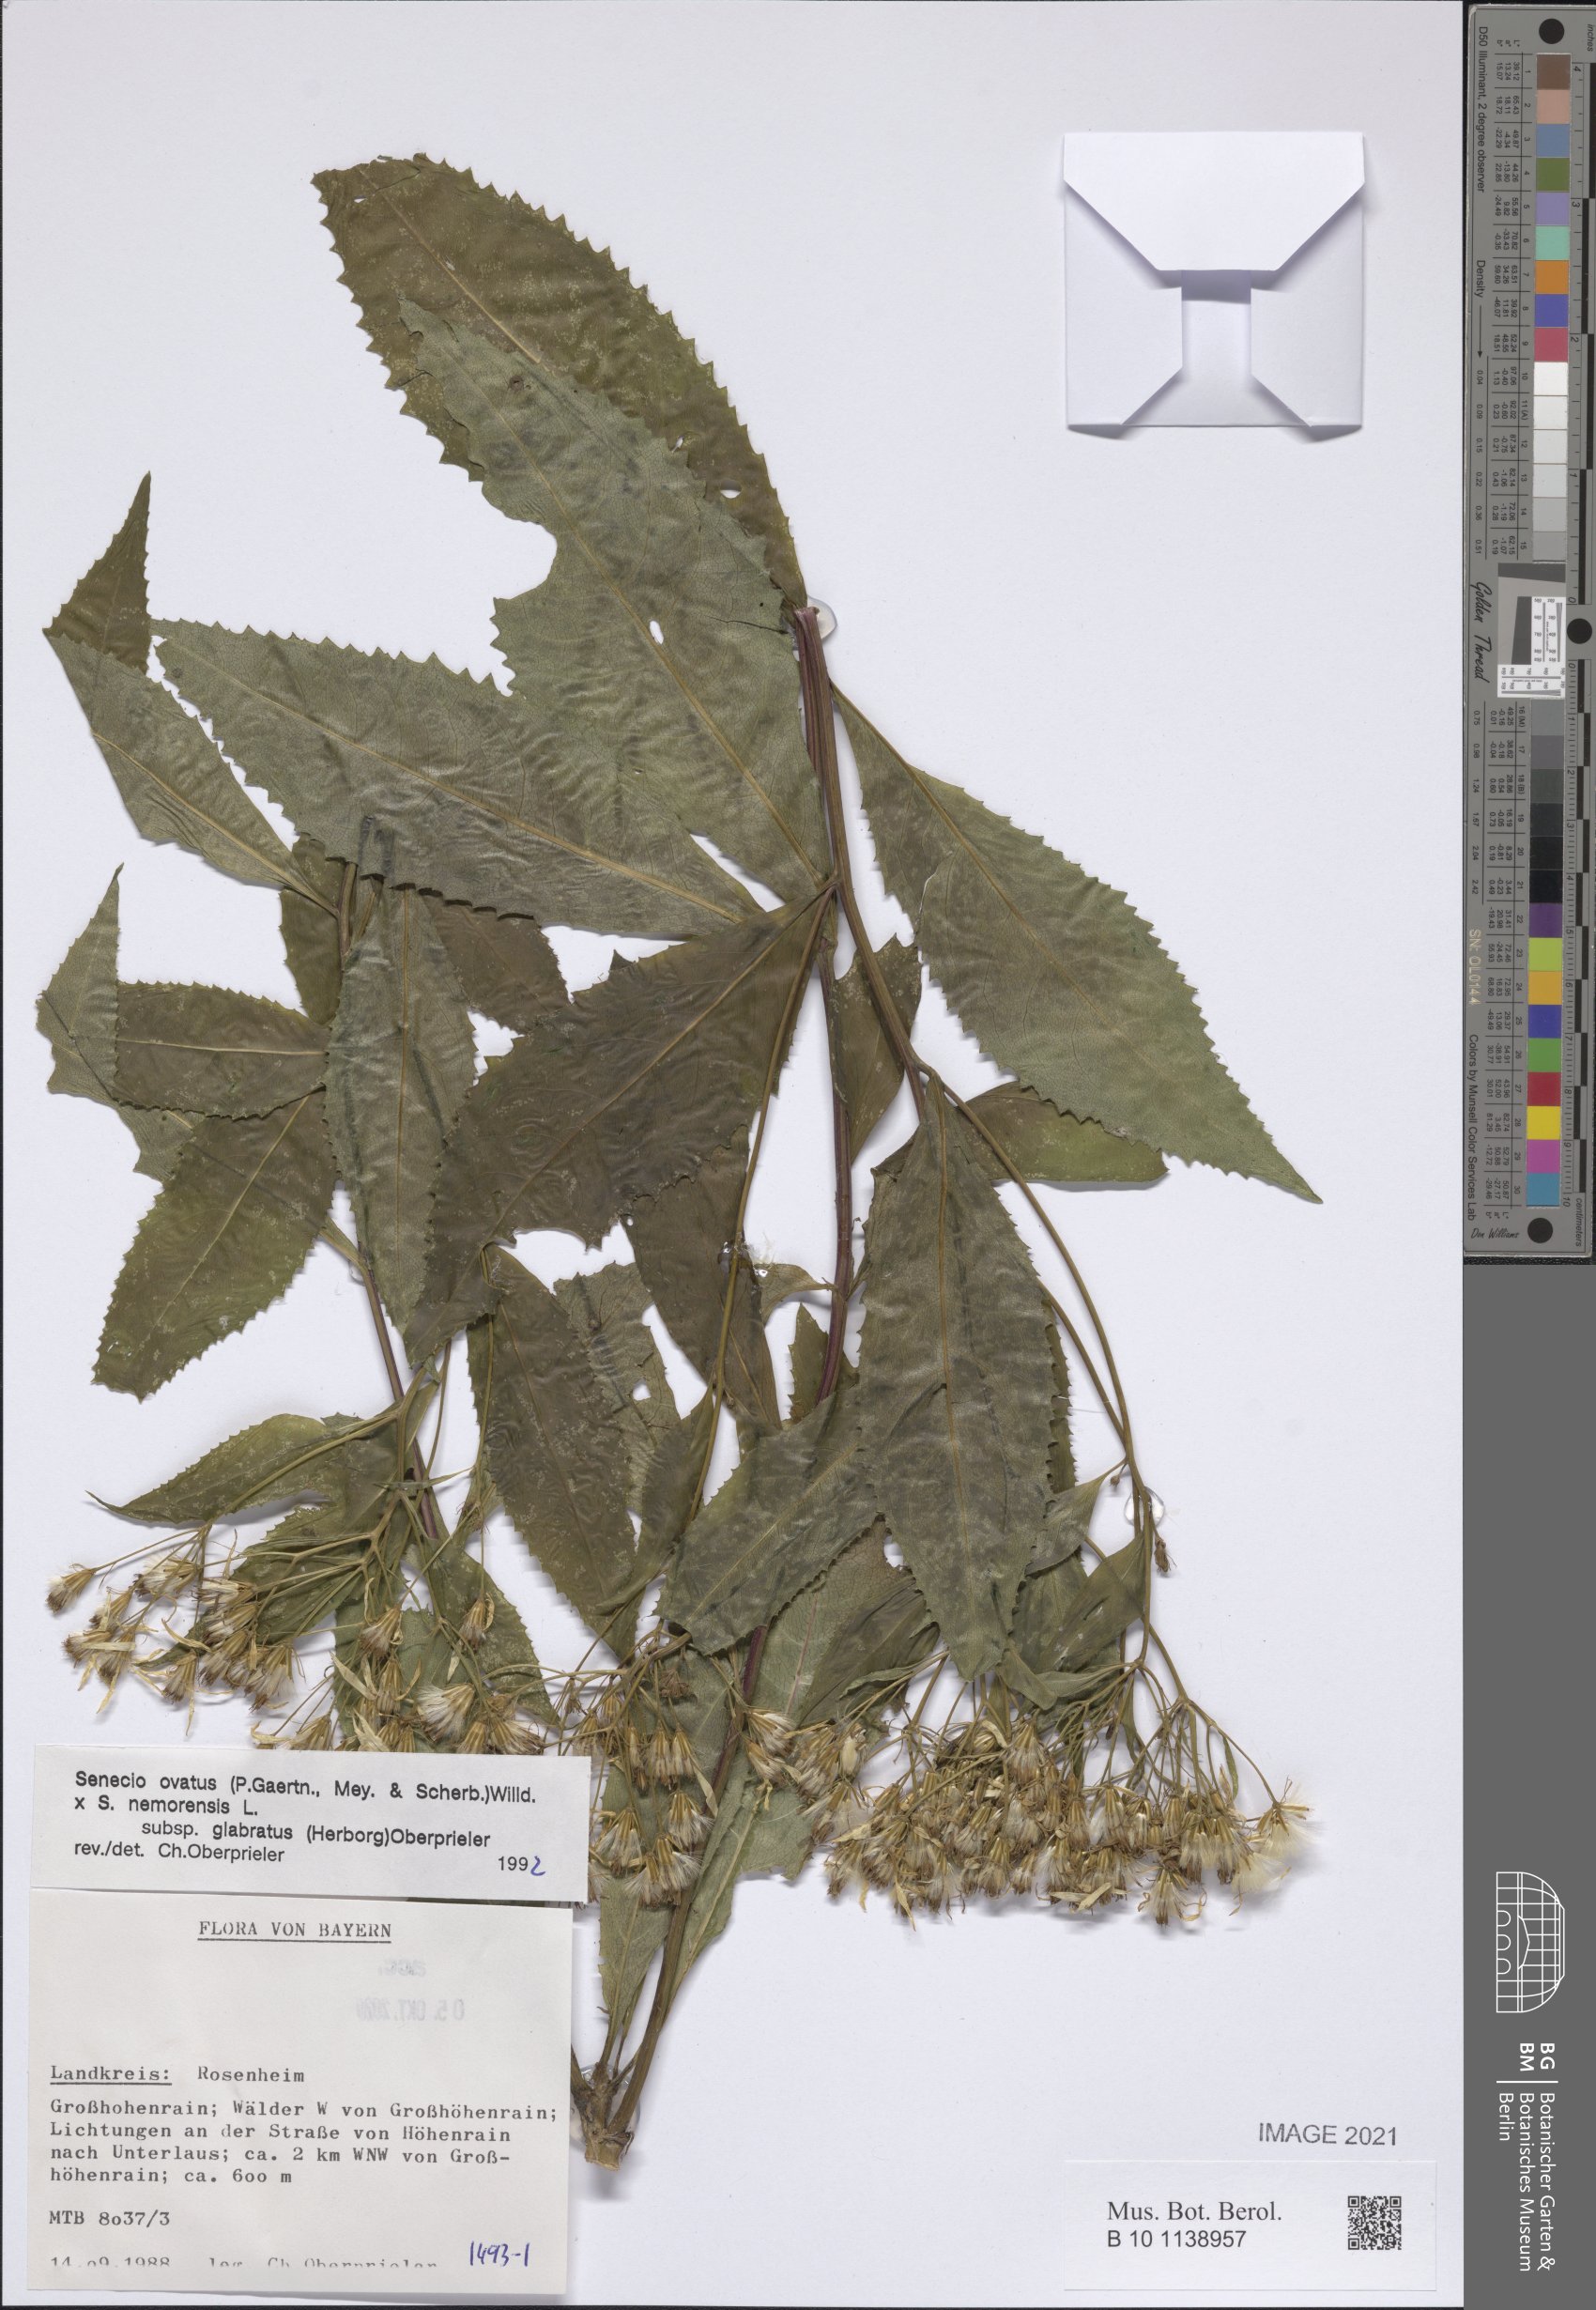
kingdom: Plantae
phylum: Tracheophyta
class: Magnoliopsida
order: Asterales
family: Asteraceae
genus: Senecio
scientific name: Senecio ovatus
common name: Wood ragwort
